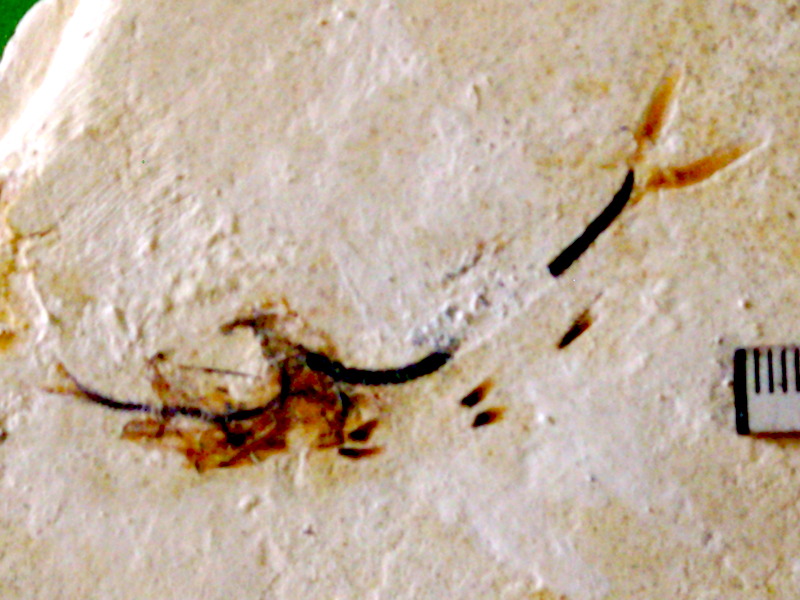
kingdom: Animalia
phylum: Chordata
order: Salmoniformes
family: Orthogonikleithridae
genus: Orthogonikleithrus
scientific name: Orthogonikleithrus hoelli
